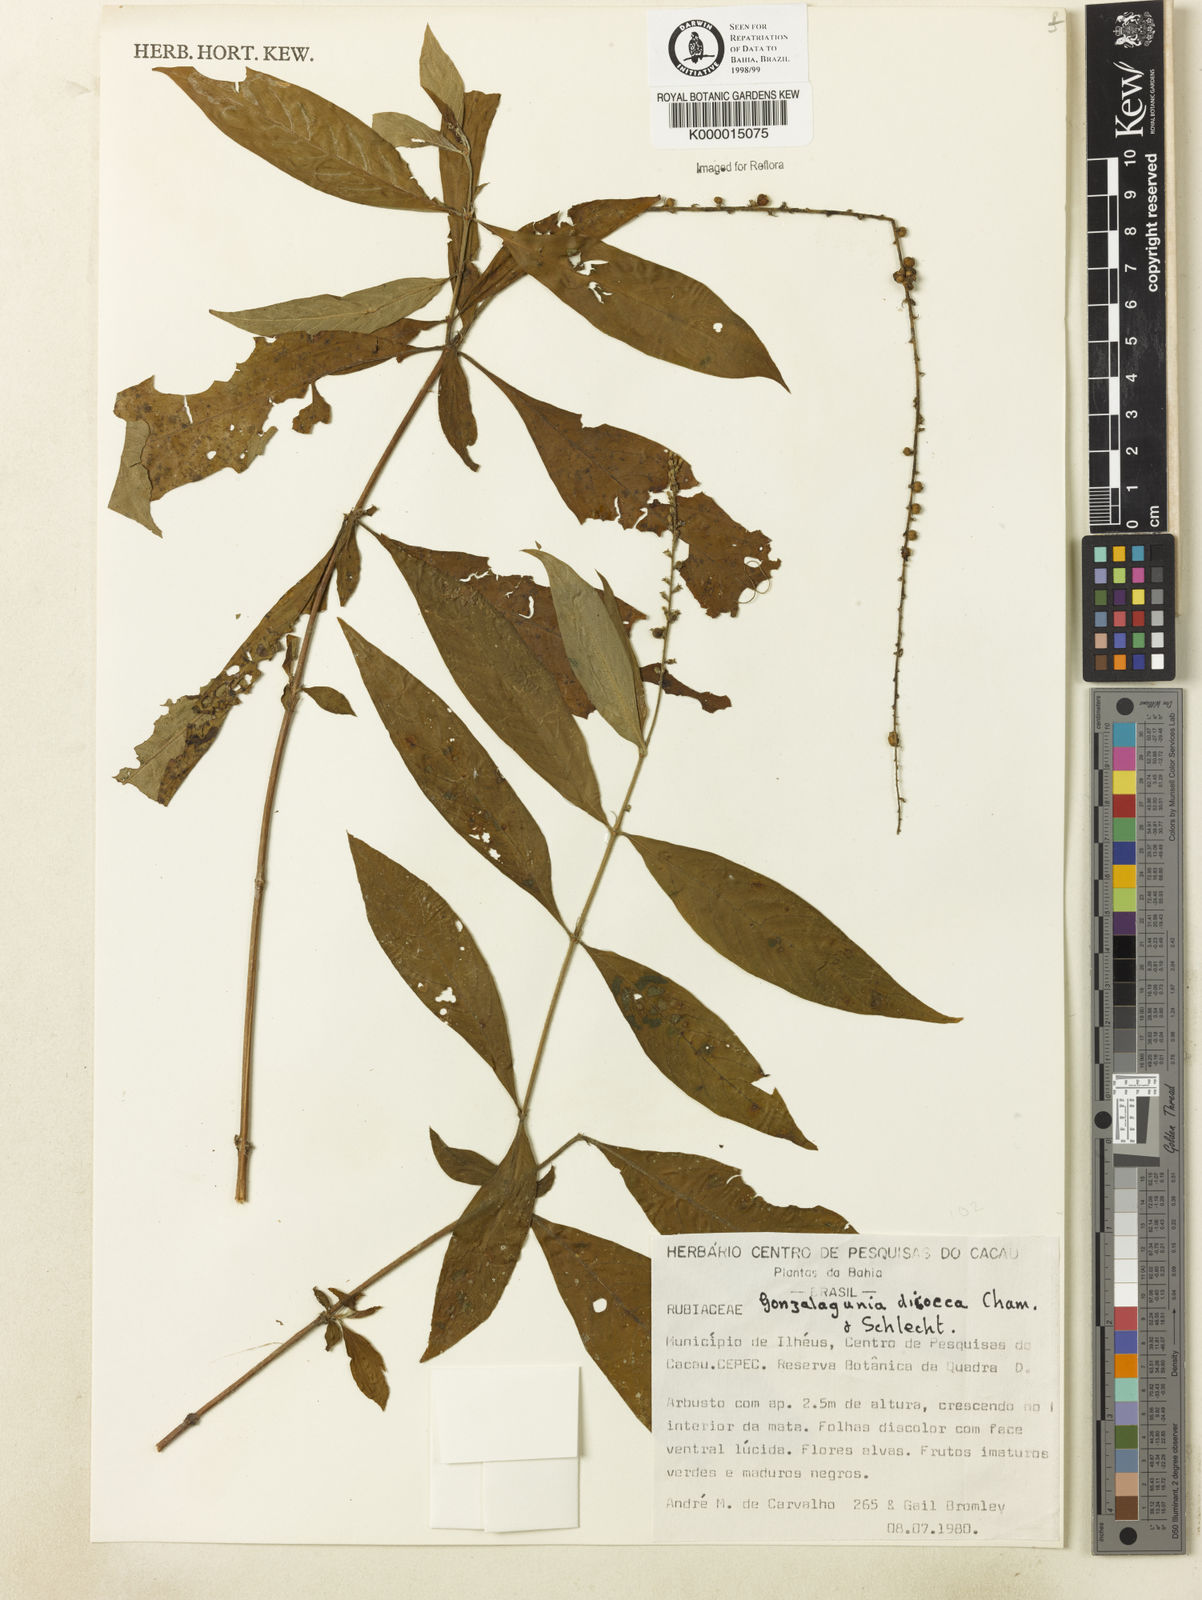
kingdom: Plantae
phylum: Tracheophyta
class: Magnoliopsida
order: Gentianales
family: Rubiaceae
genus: Gonzalagunia
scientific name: Gonzalagunia dicocca
